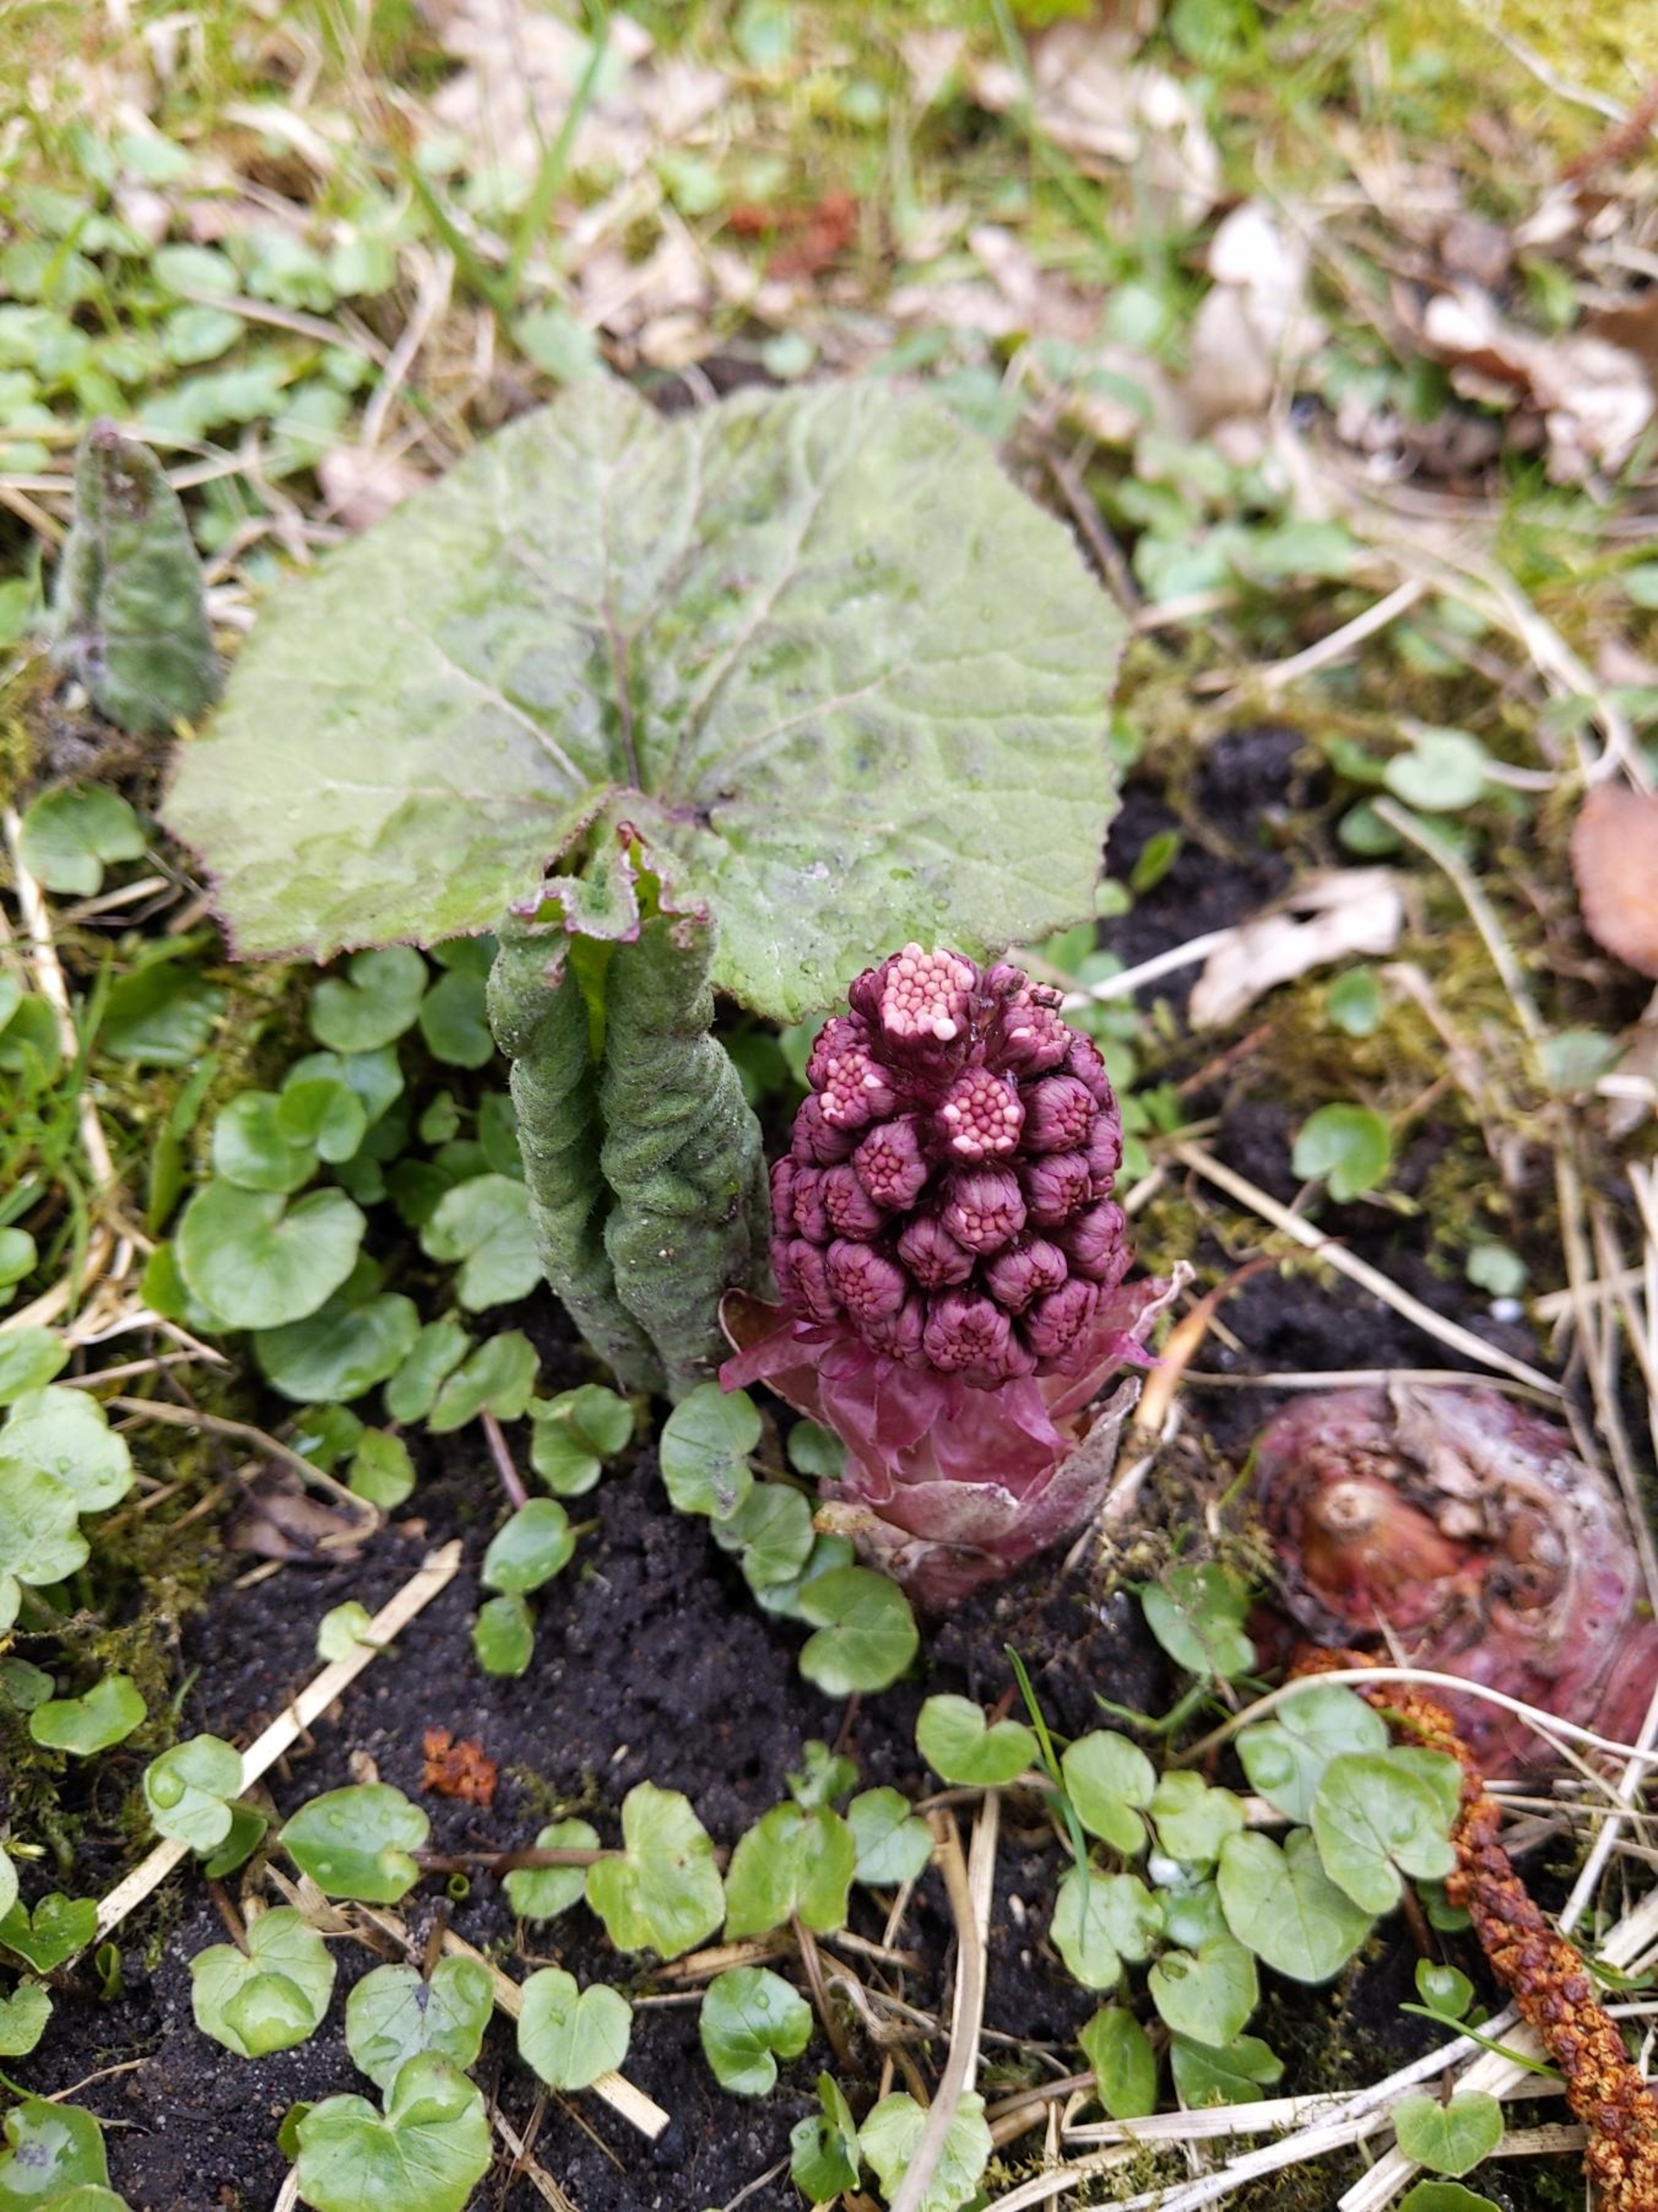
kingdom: Plantae
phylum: Tracheophyta
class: Magnoliopsida
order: Asterales
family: Asteraceae
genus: Petasites
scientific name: Petasites hybridus
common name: Rød hestehov
